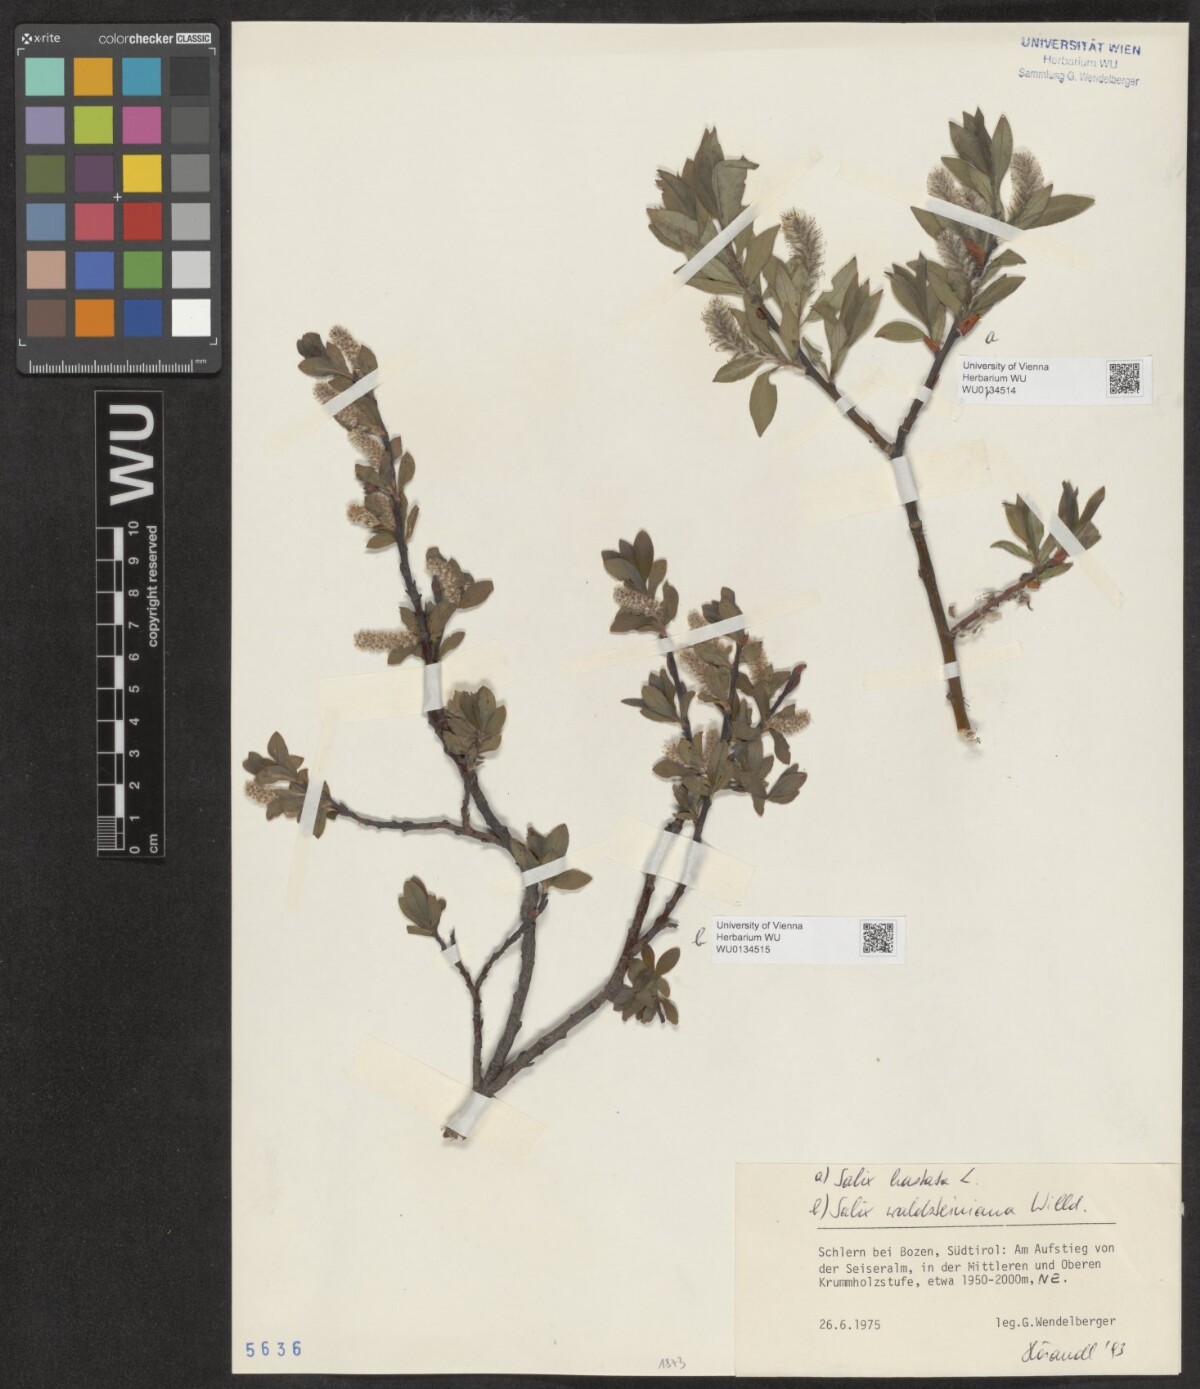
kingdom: Plantae
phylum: Tracheophyta
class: Magnoliopsida
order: Malpighiales
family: Salicaceae
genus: Salix
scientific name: Salix hastata
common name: Halberd willow
